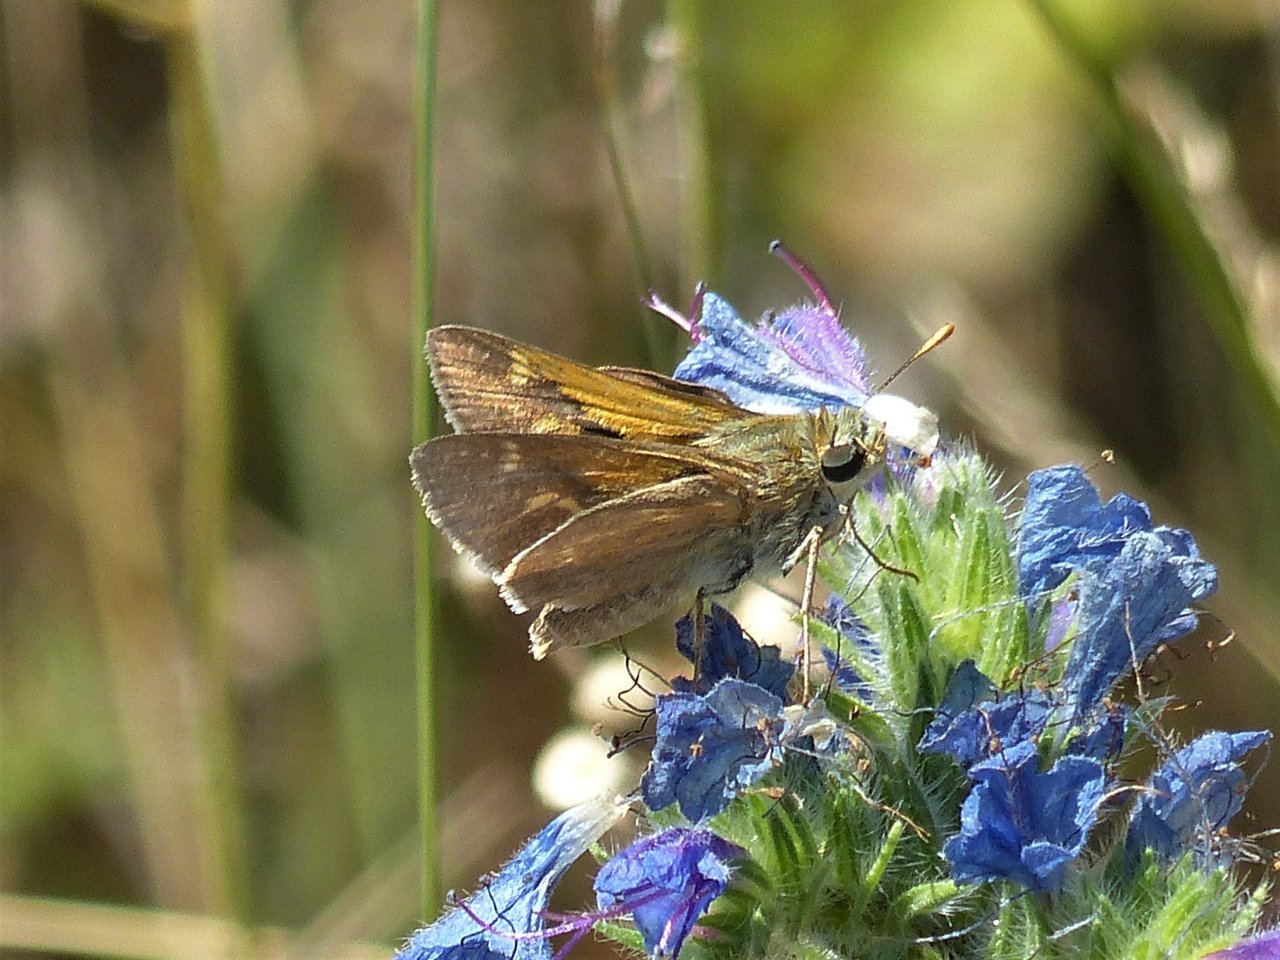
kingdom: Animalia
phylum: Arthropoda
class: Insecta
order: Lepidoptera
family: Hesperiidae
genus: Polites
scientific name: Polites
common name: Crossline Skipper
